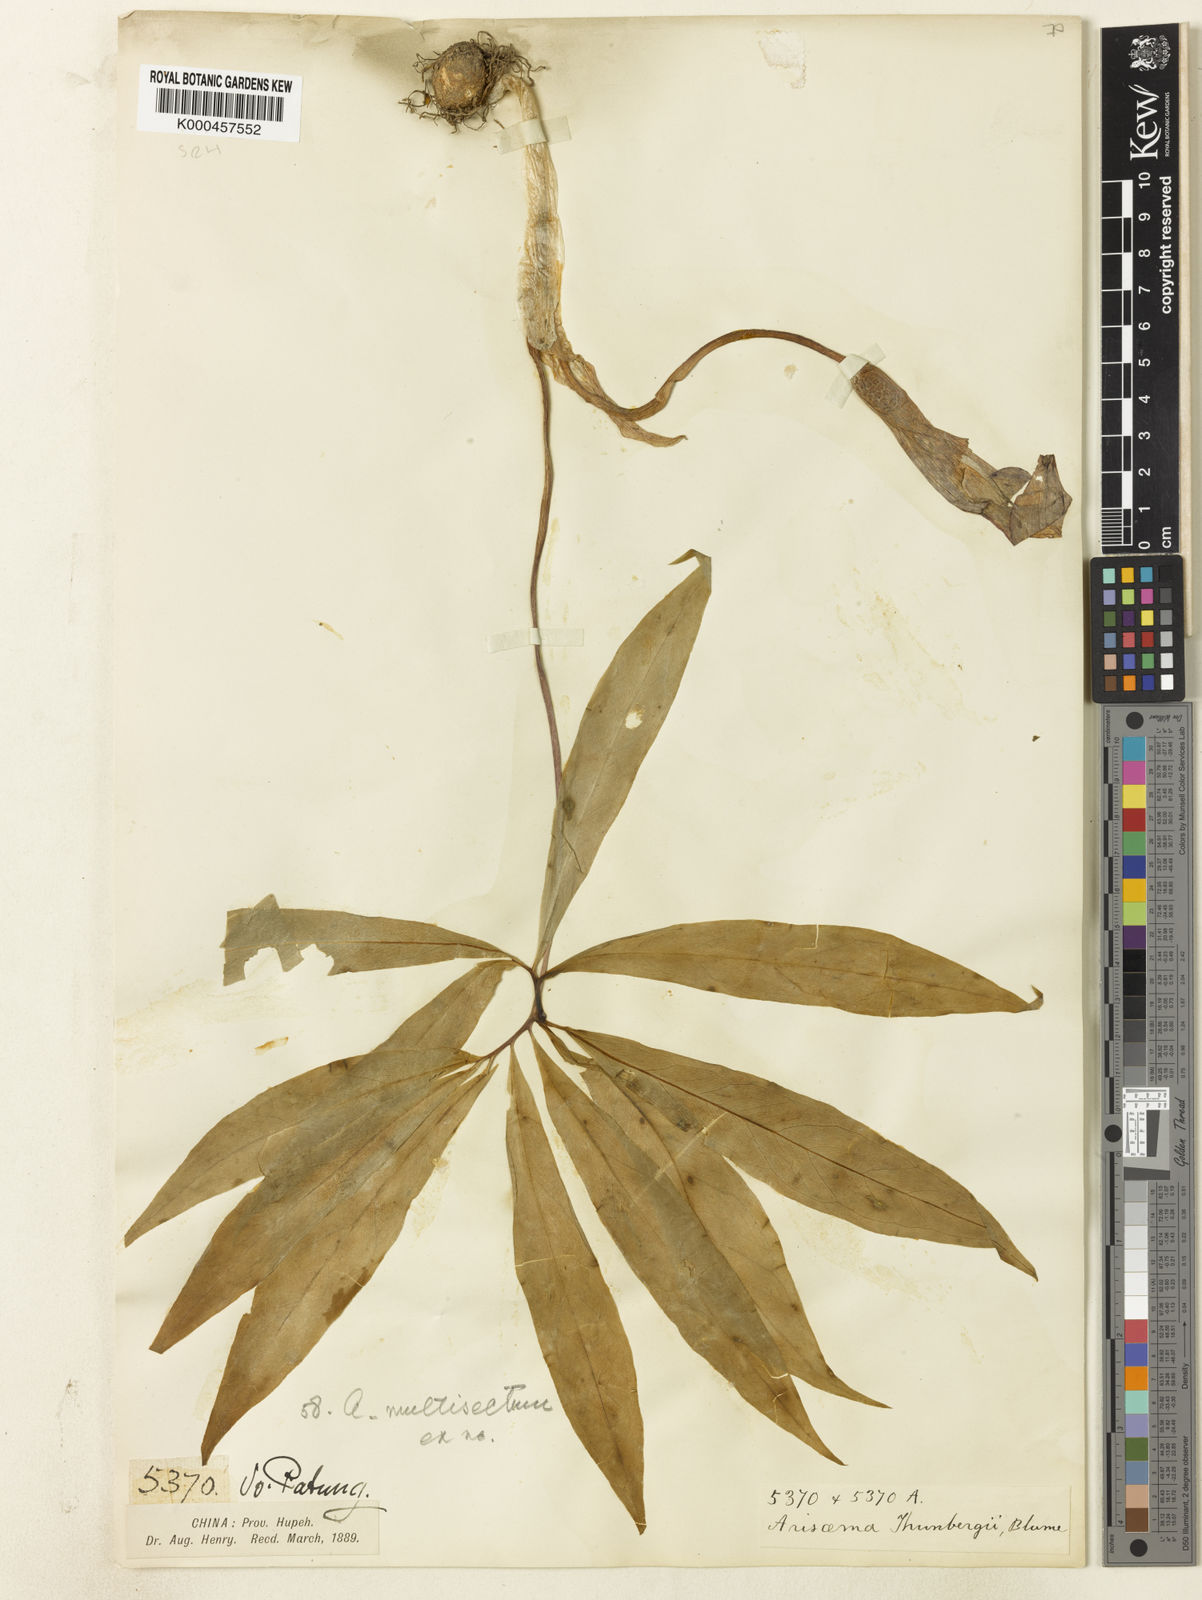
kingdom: Plantae
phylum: Tracheophyta
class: Liliopsida
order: Alismatales
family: Araceae
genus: Arisaema
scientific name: Arisaema heterophyllum
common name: Dancing crane cobra lily
